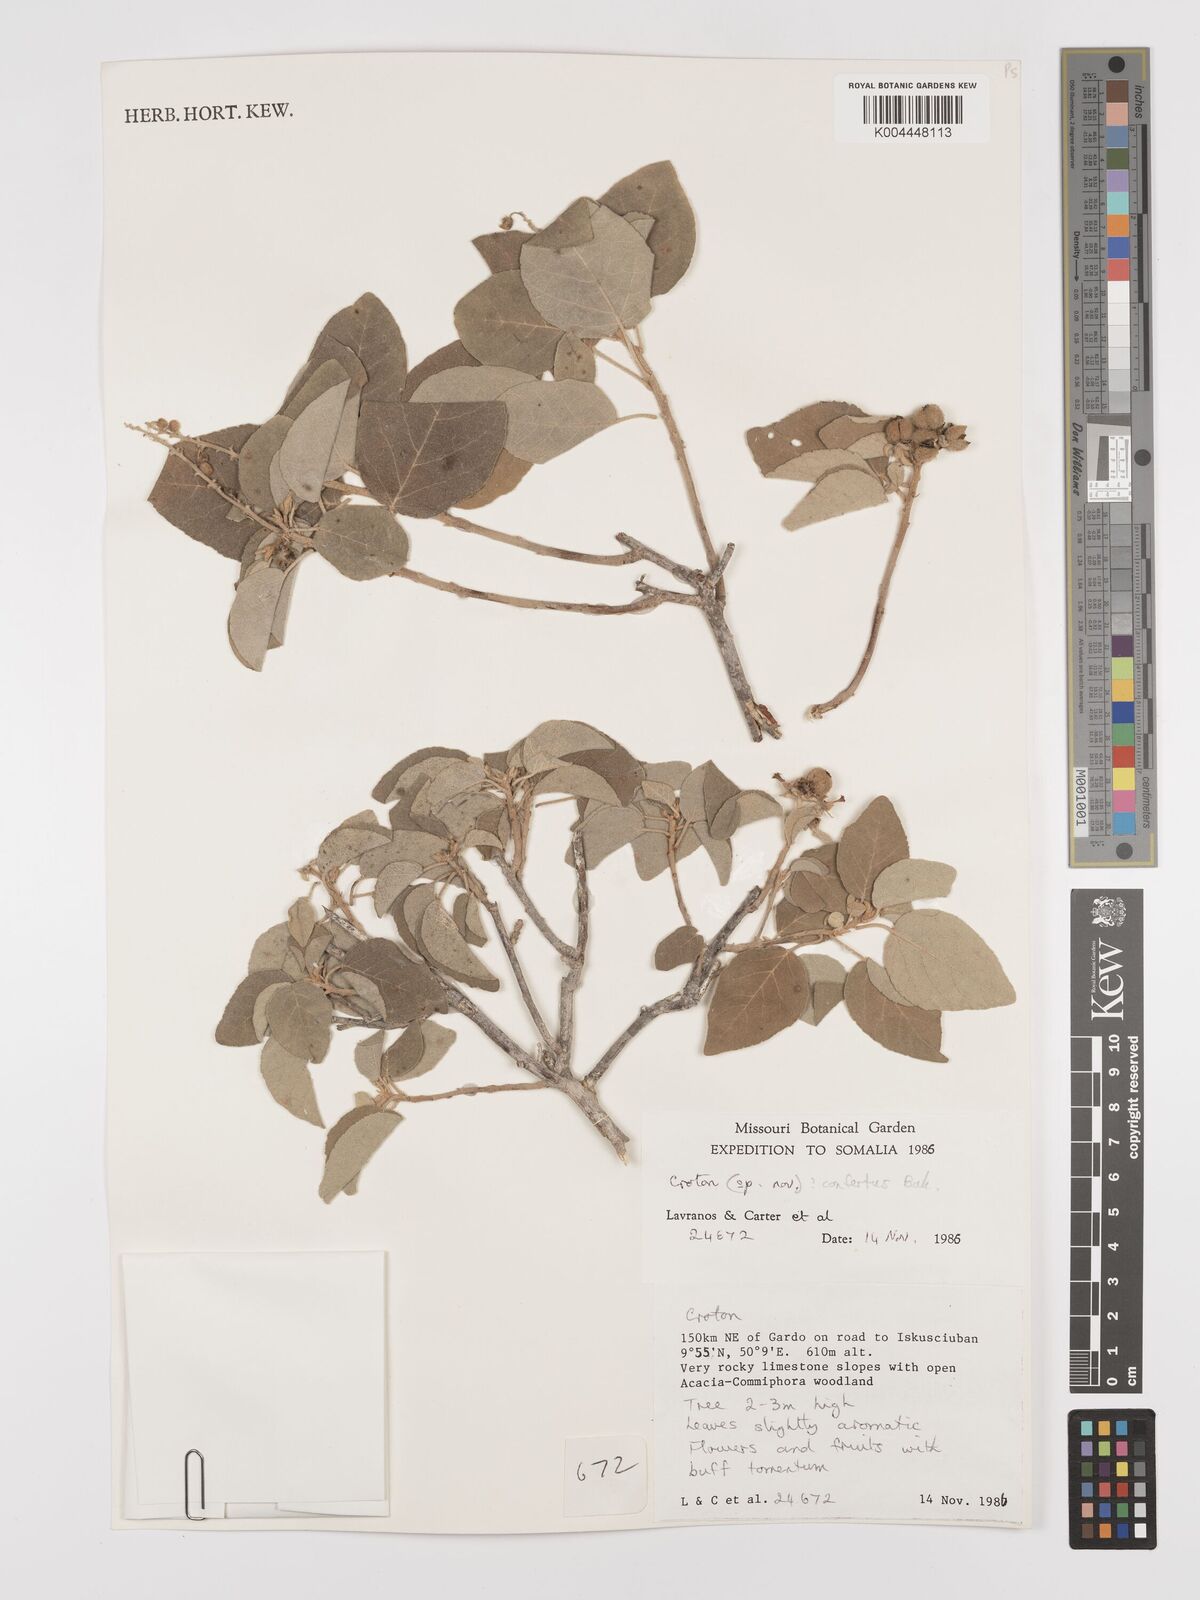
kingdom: Plantae
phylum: Tracheophyta
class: Magnoliopsida
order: Malpighiales
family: Euphorbiaceae
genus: Croton
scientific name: Croton confertus
